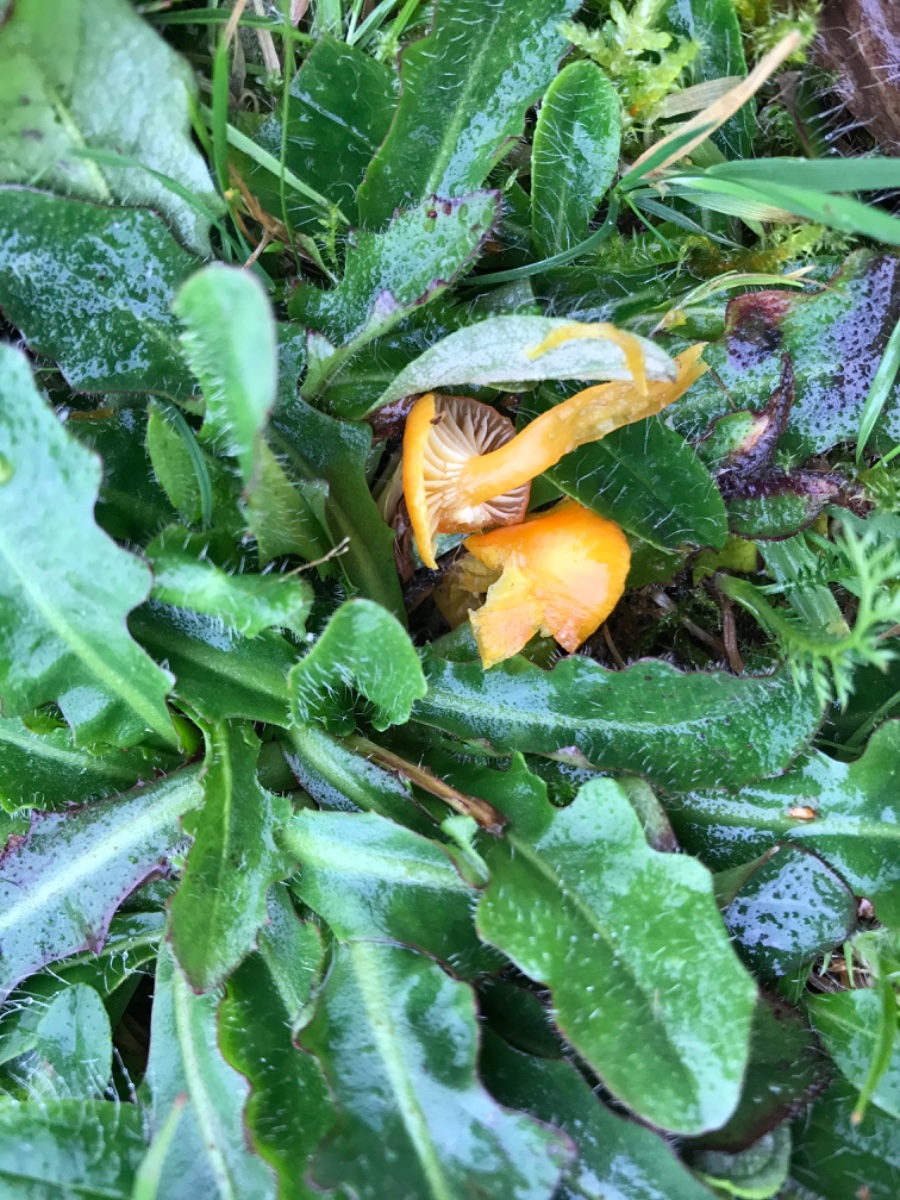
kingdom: Fungi
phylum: Basidiomycota
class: Agaricomycetes
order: Agaricales
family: Hygrophoraceae
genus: Hygrocybe
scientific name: Hygrocybe glutinipes
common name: slimstokket vokshat
